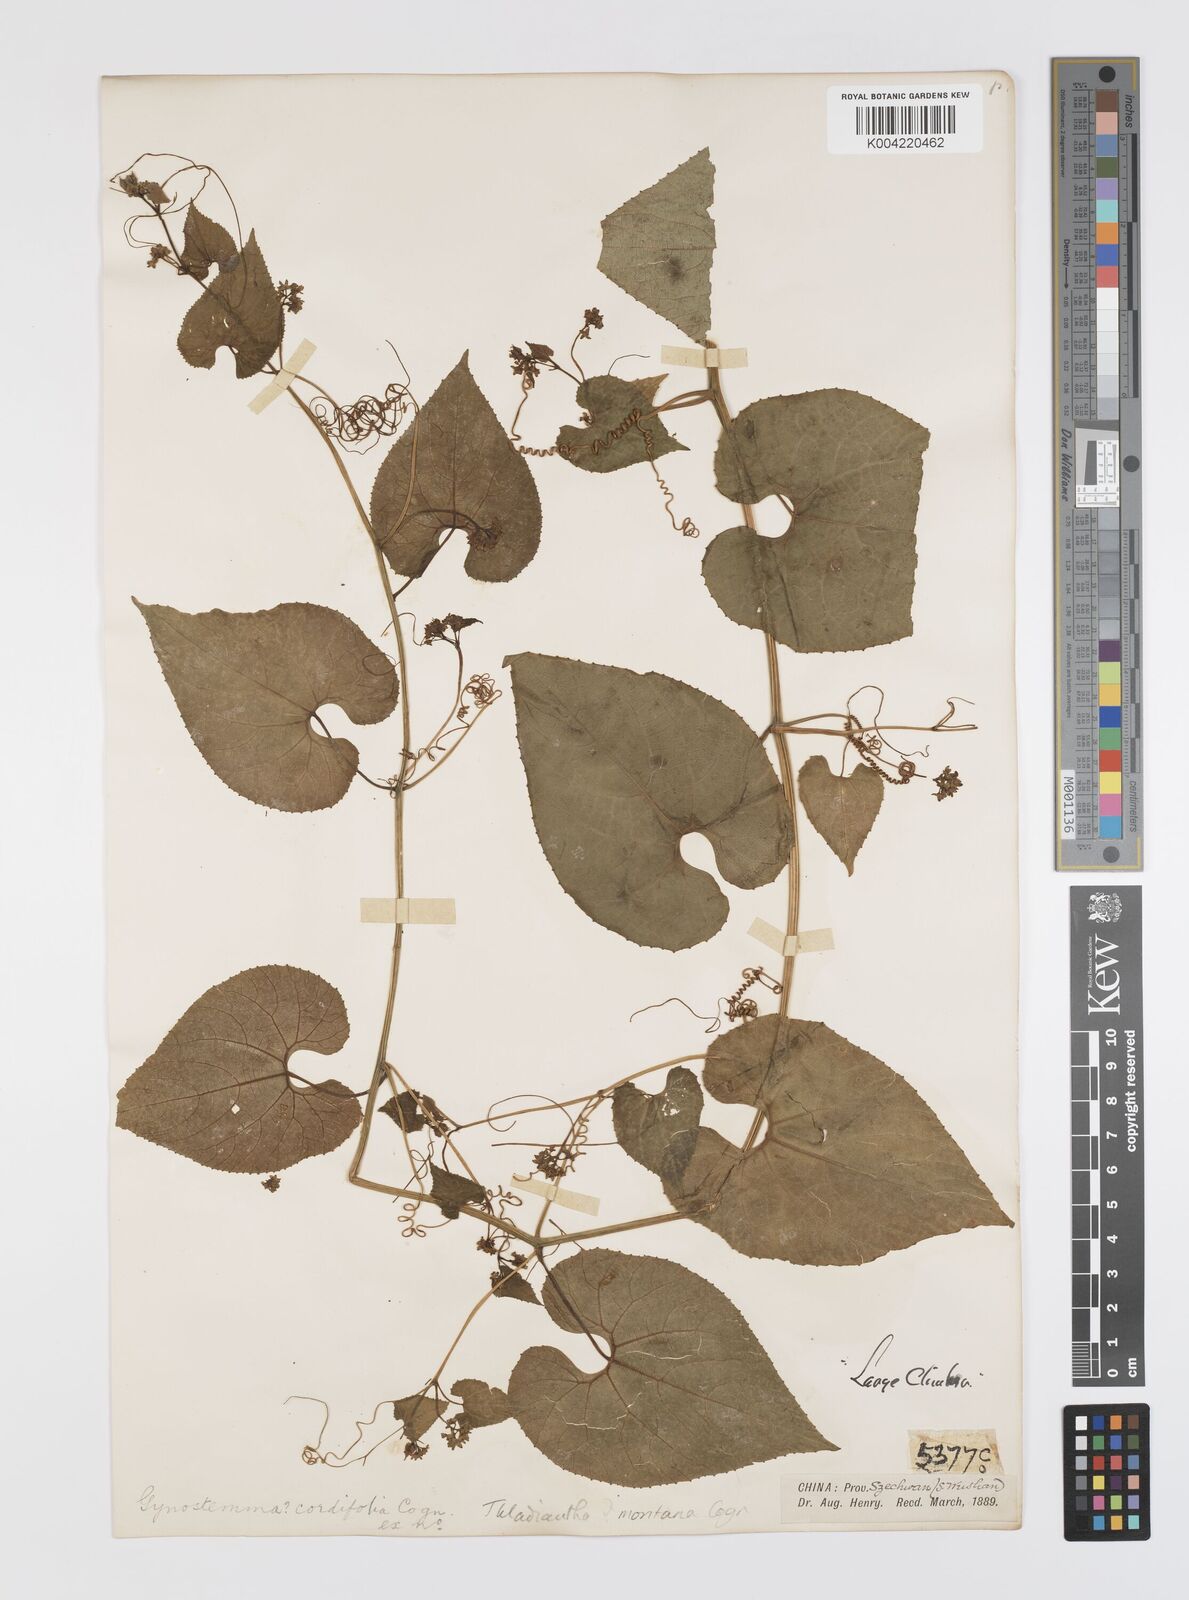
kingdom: Plantae
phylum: Tracheophyta
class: Magnoliopsida
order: Cucurbitales
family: Cucurbitaceae
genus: Thladiantha
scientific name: Thladiantha montana
